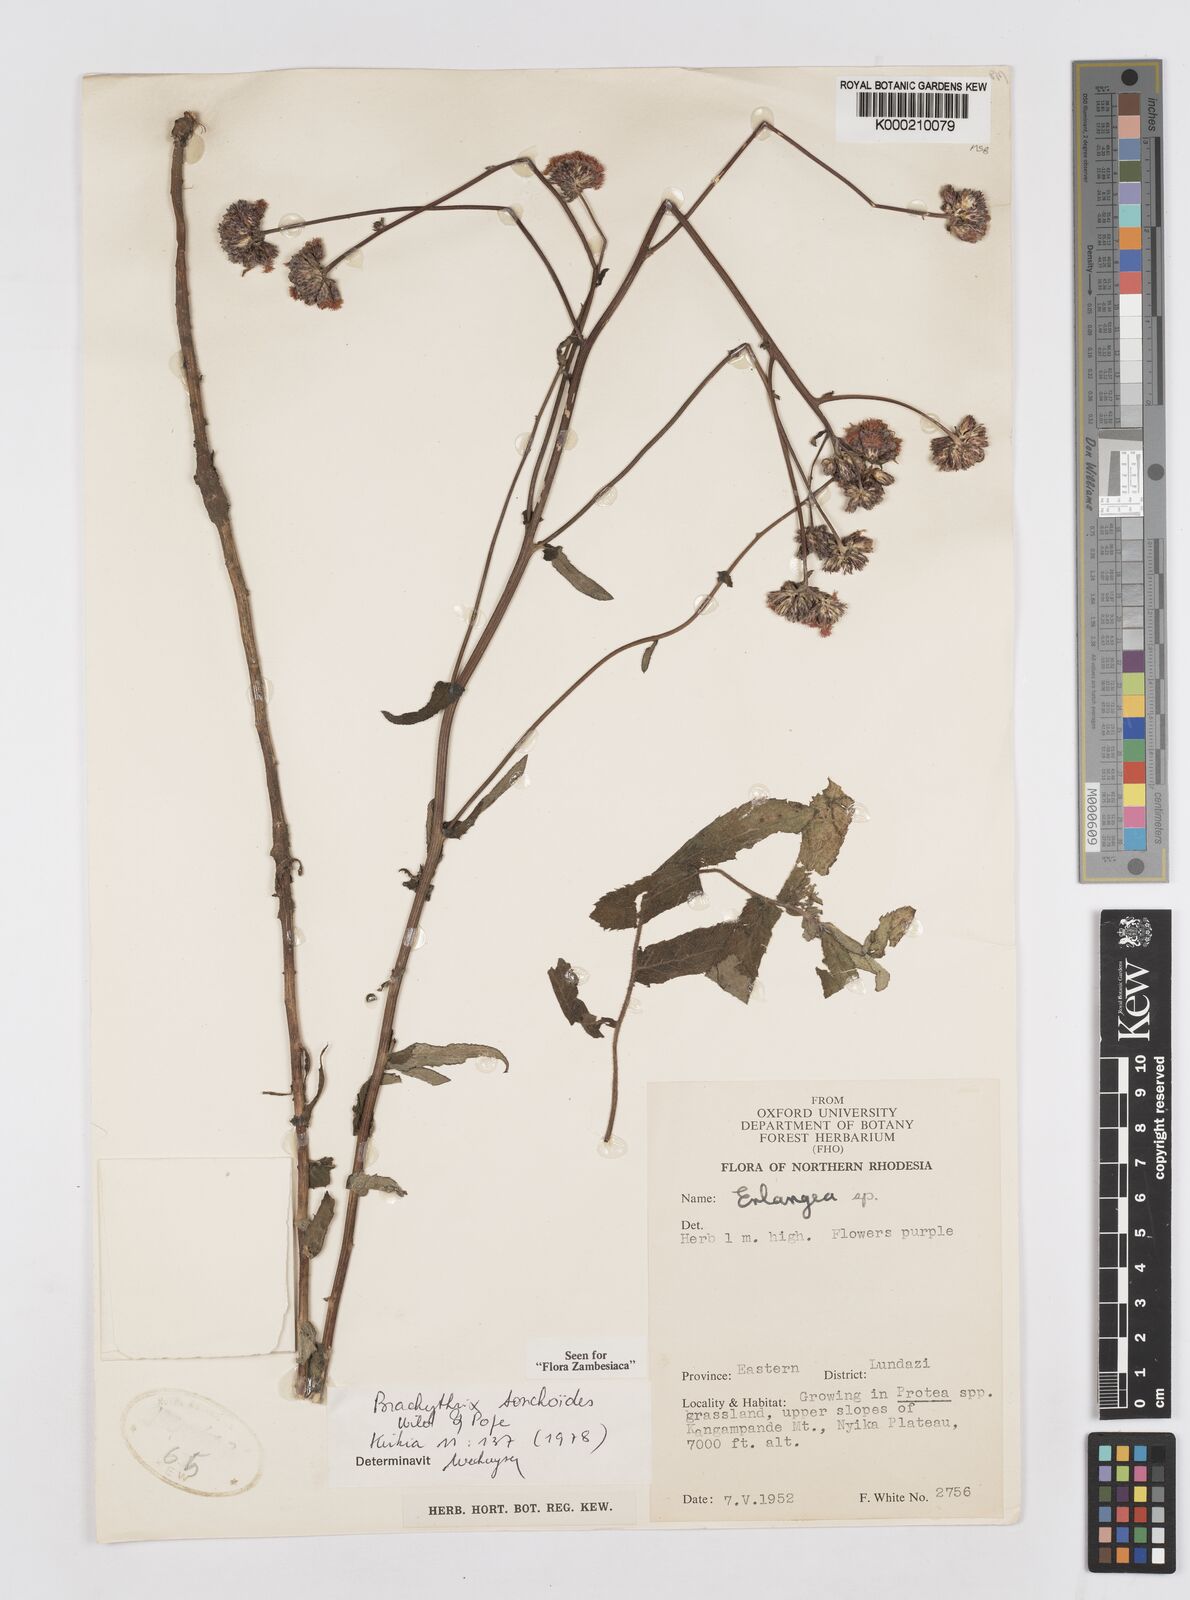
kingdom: Plantae
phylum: Tracheophyta
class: Magnoliopsida
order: Asterales
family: Asteraceae
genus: Brachythrix
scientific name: Brachythrix sonchoides
